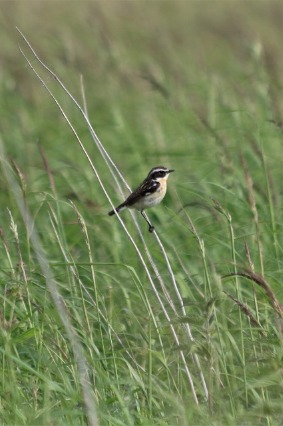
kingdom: Animalia
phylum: Chordata
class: Aves
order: Passeriformes
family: Muscicapidae
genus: Saxicola
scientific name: Saxicola rubetra
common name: Bynkefugl
